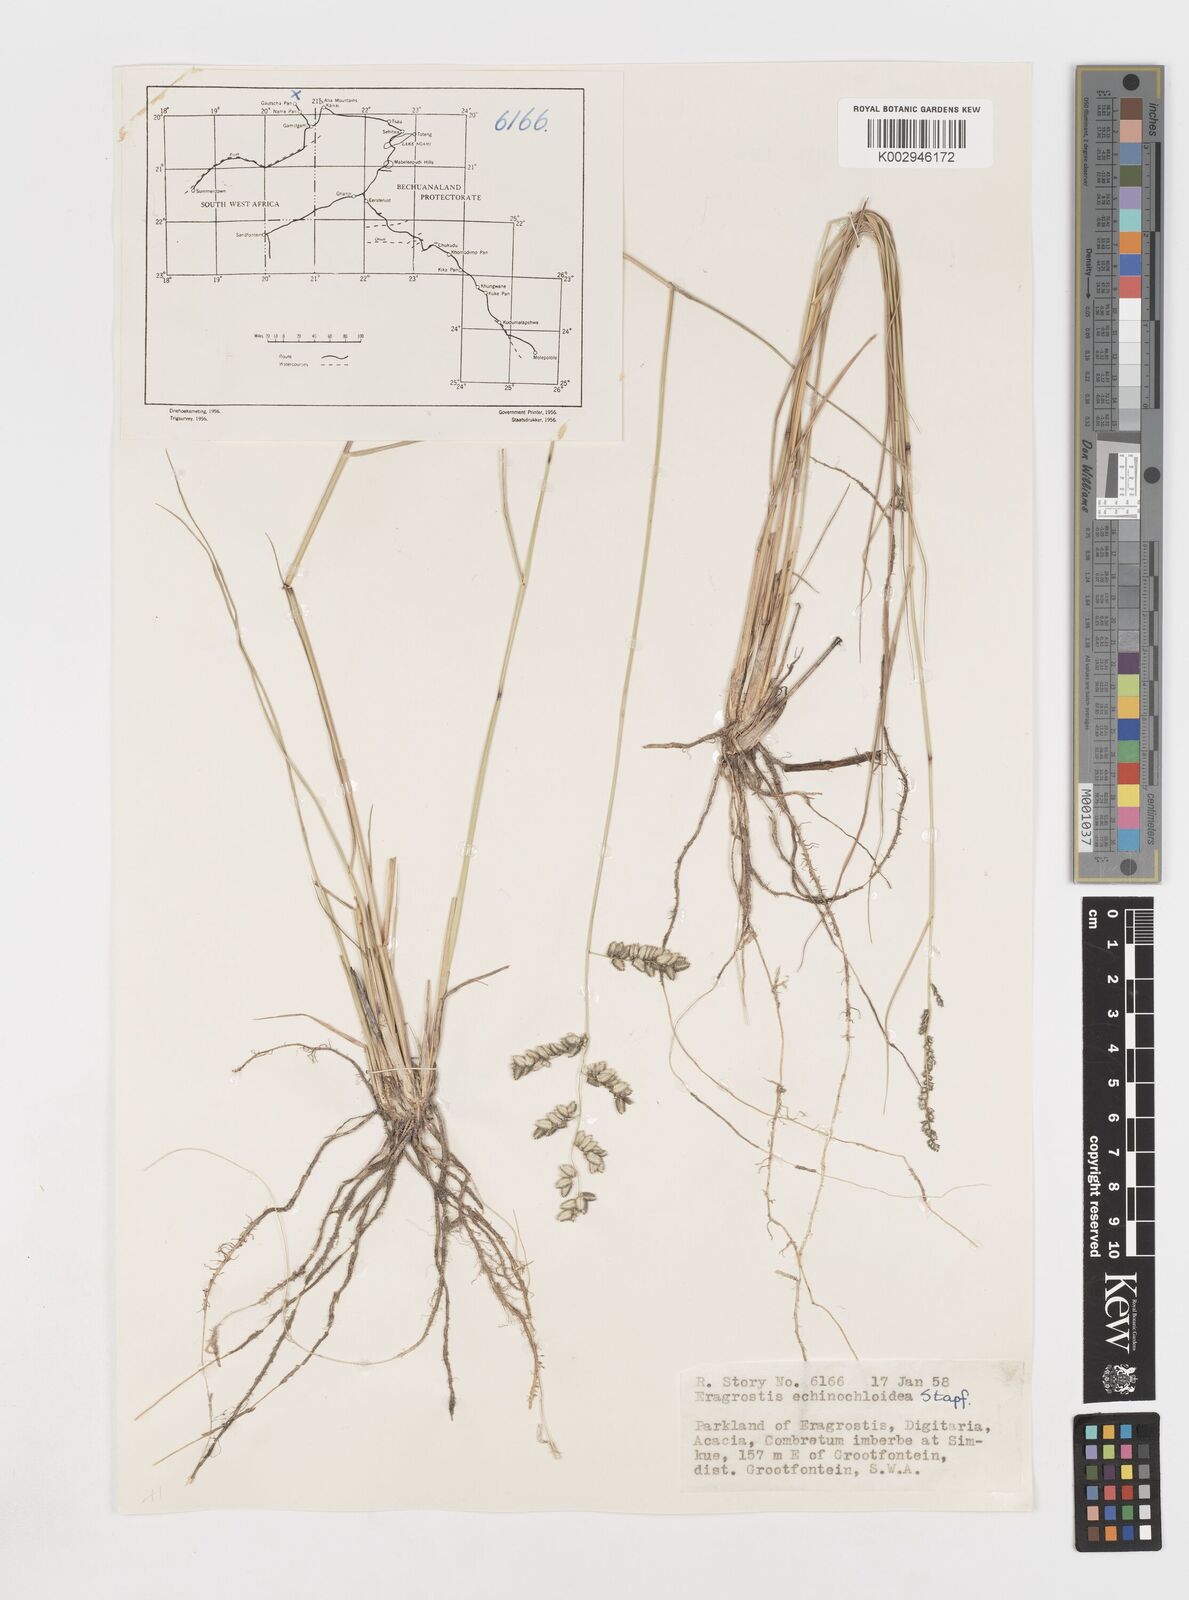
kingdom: Plantae
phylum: Tracheophyta
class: Liliopsida
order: Poales
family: Poaceae
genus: Eragrostis
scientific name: Eragrostis echinochloidea
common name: African lovegrass
